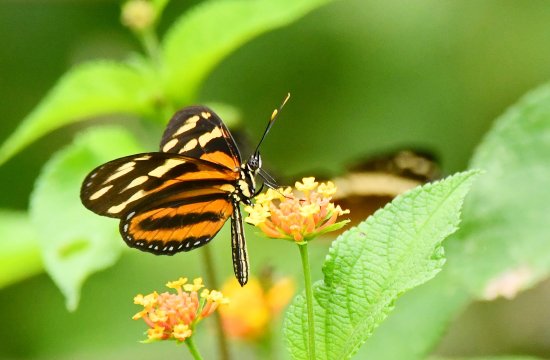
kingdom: Animalia
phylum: Arthropoda
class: Insecta
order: Lepidoptera
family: Nymphalidae
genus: Eueides
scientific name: Eueides isabella
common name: Isabella's Heliconian
